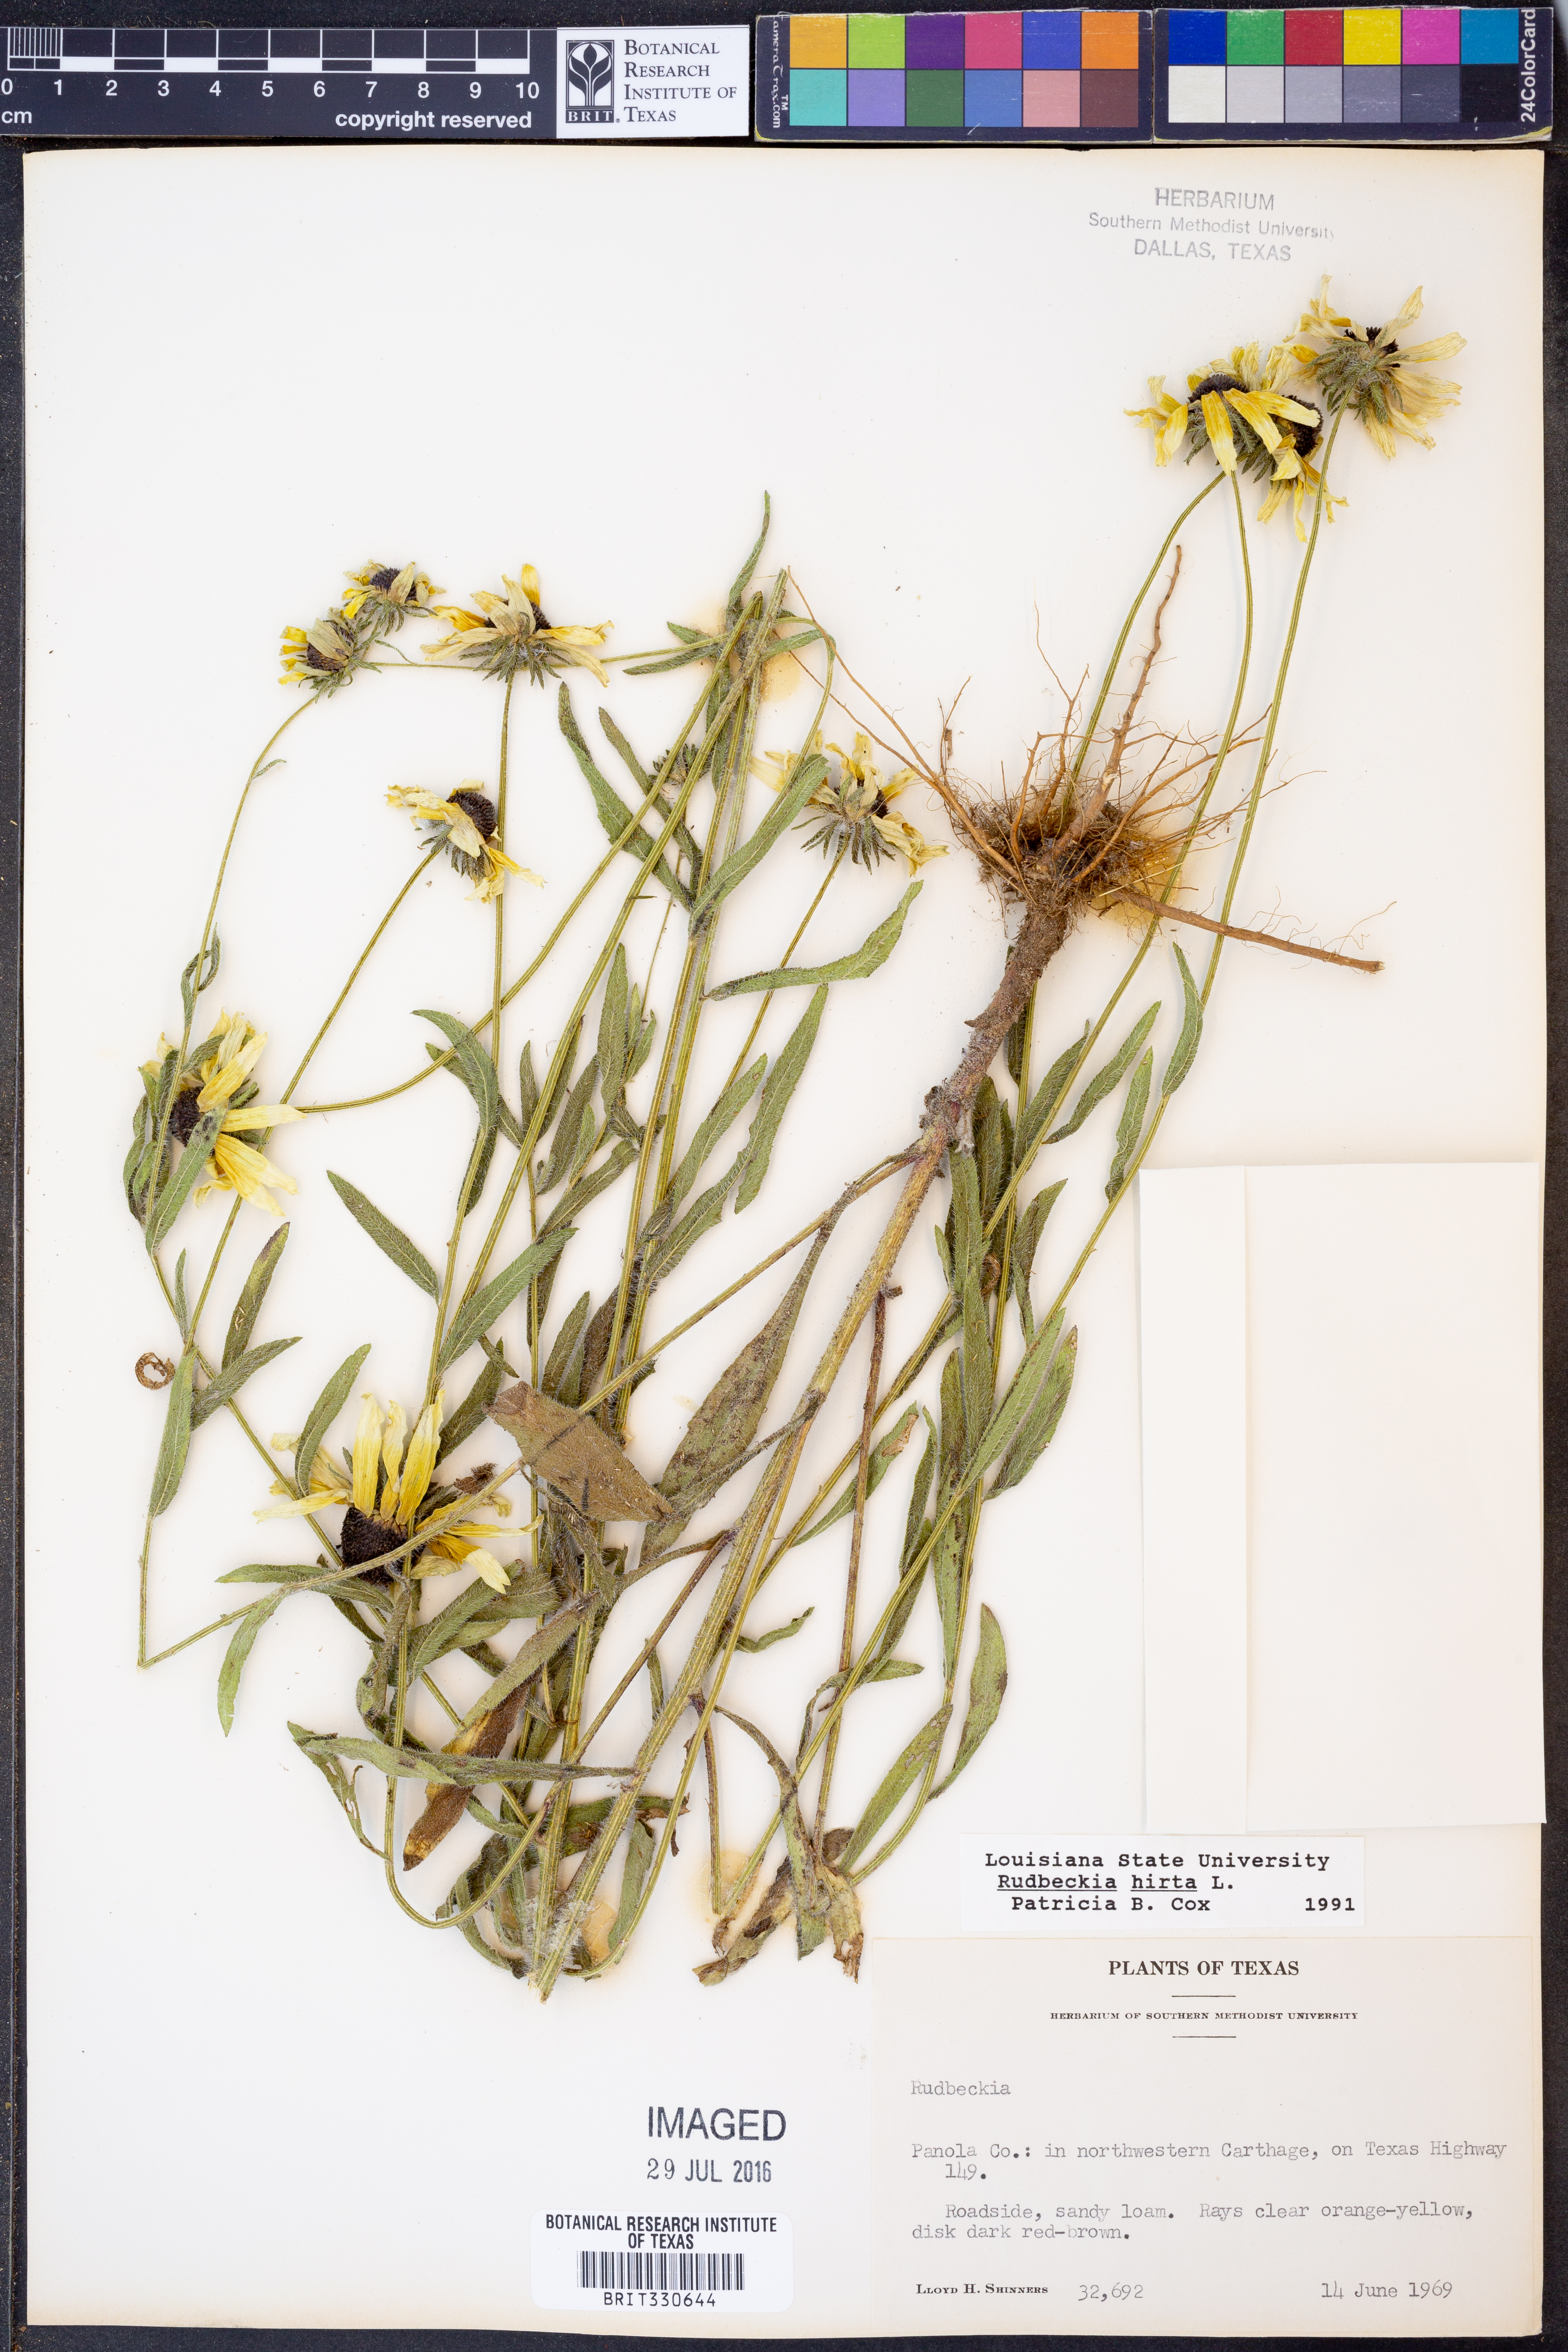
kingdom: Plantae
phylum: Tracheophyta
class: Magnoliopsida
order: Asterales
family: Asteraceae
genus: Rudbeckia
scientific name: Rudbeckia hirta
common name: Black-eyed-susan
